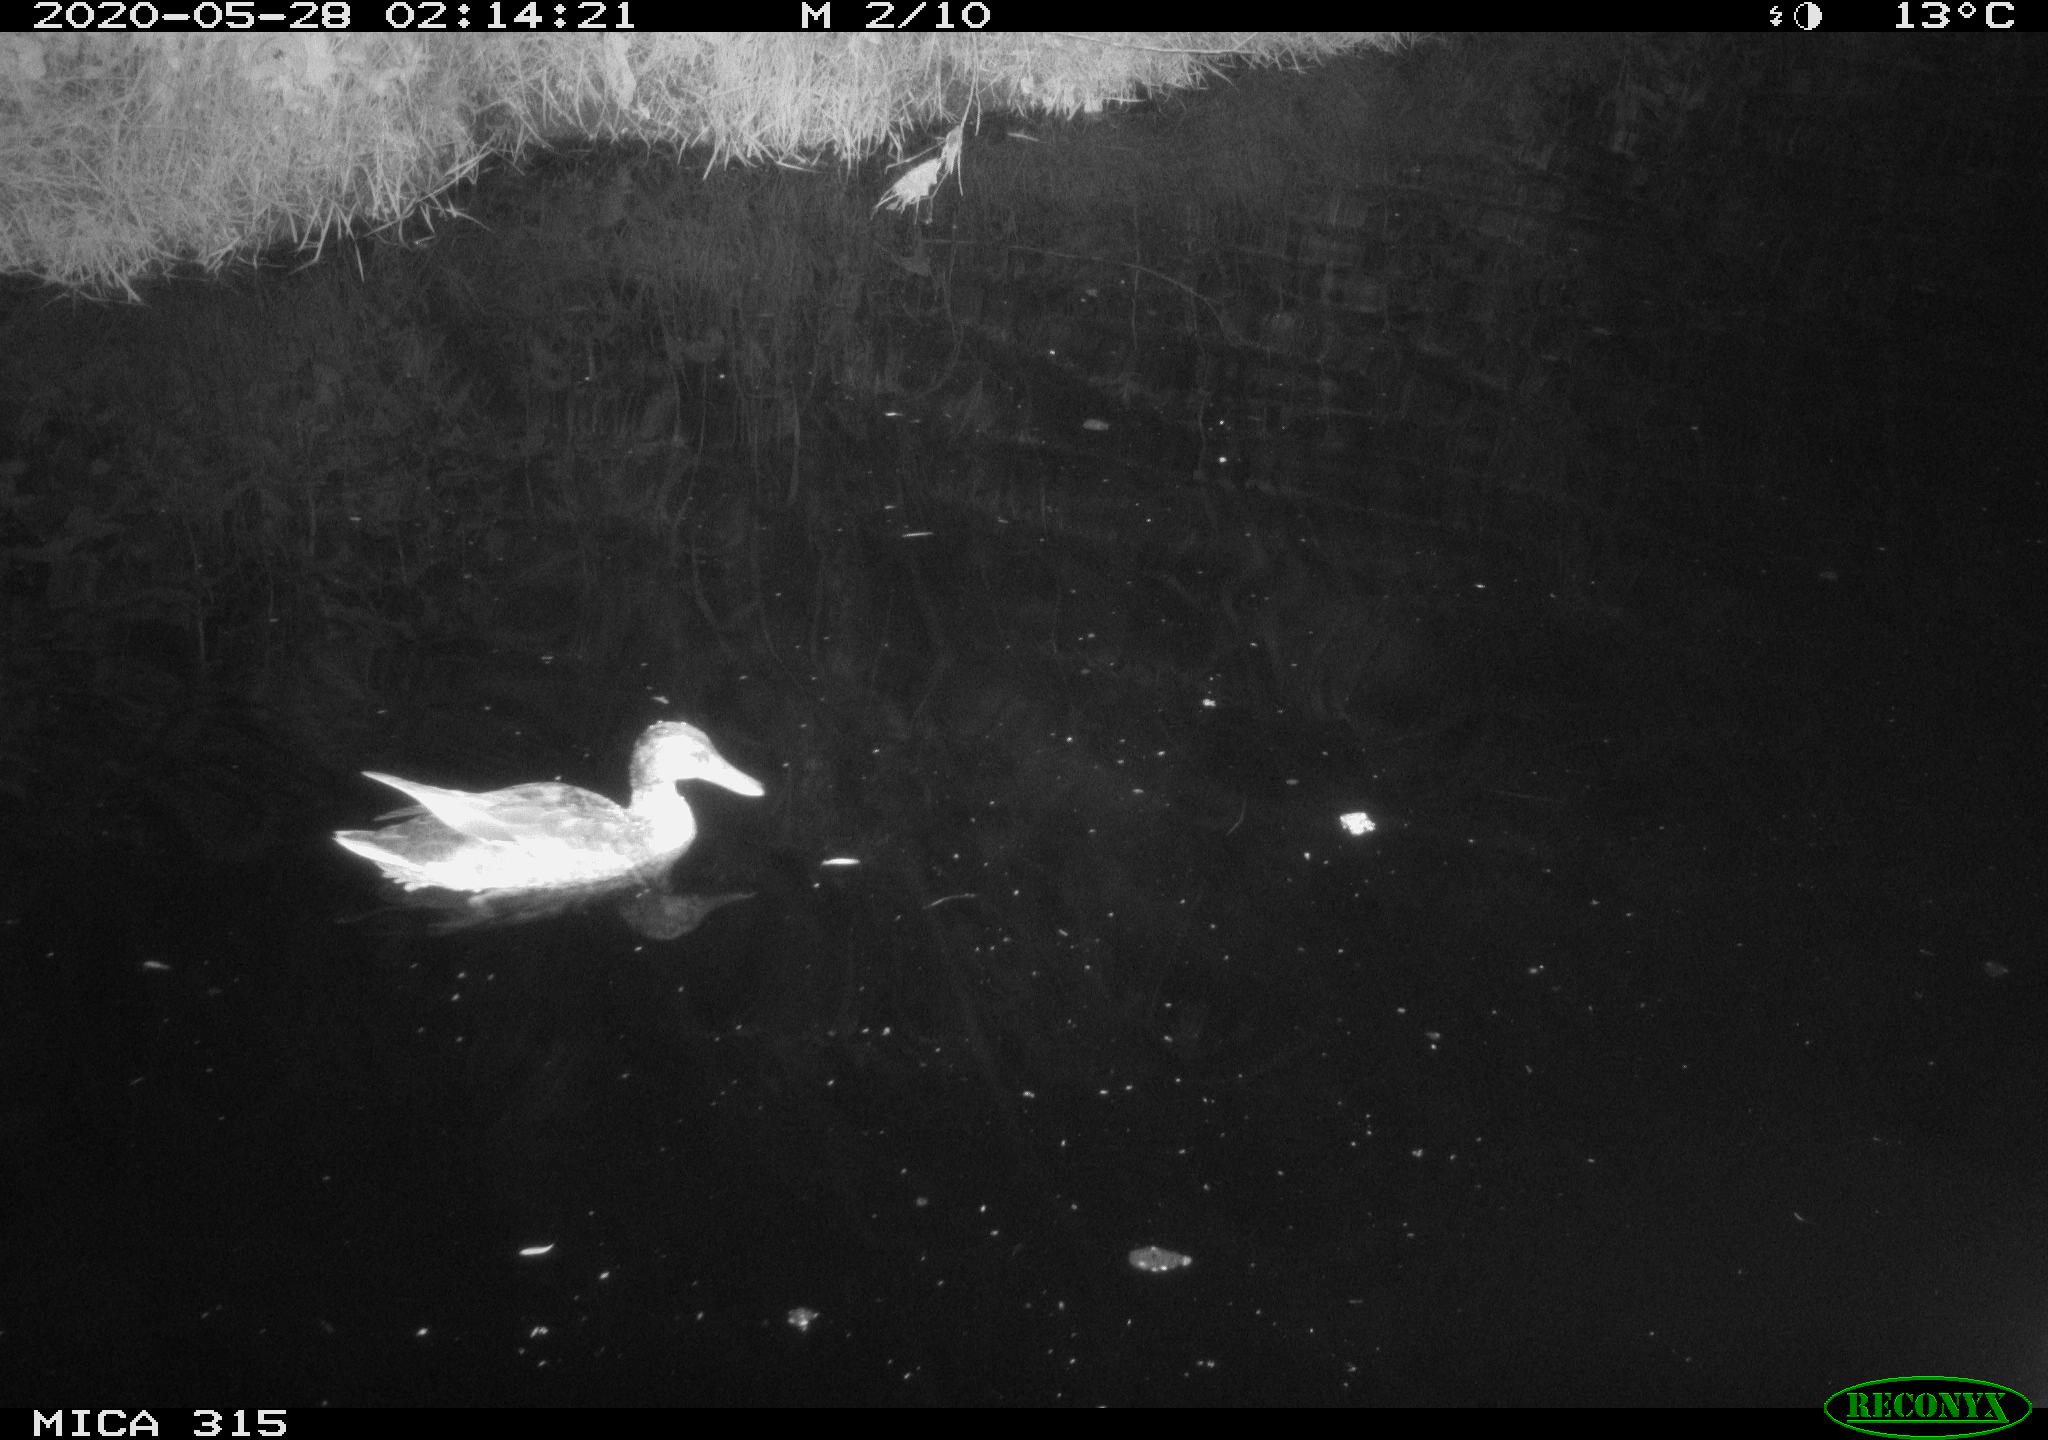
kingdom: Animalia
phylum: Chordata
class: Aves
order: Anseriformes
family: Anatidae
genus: Anas
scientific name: Anas platyrhynchos
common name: Mallard
